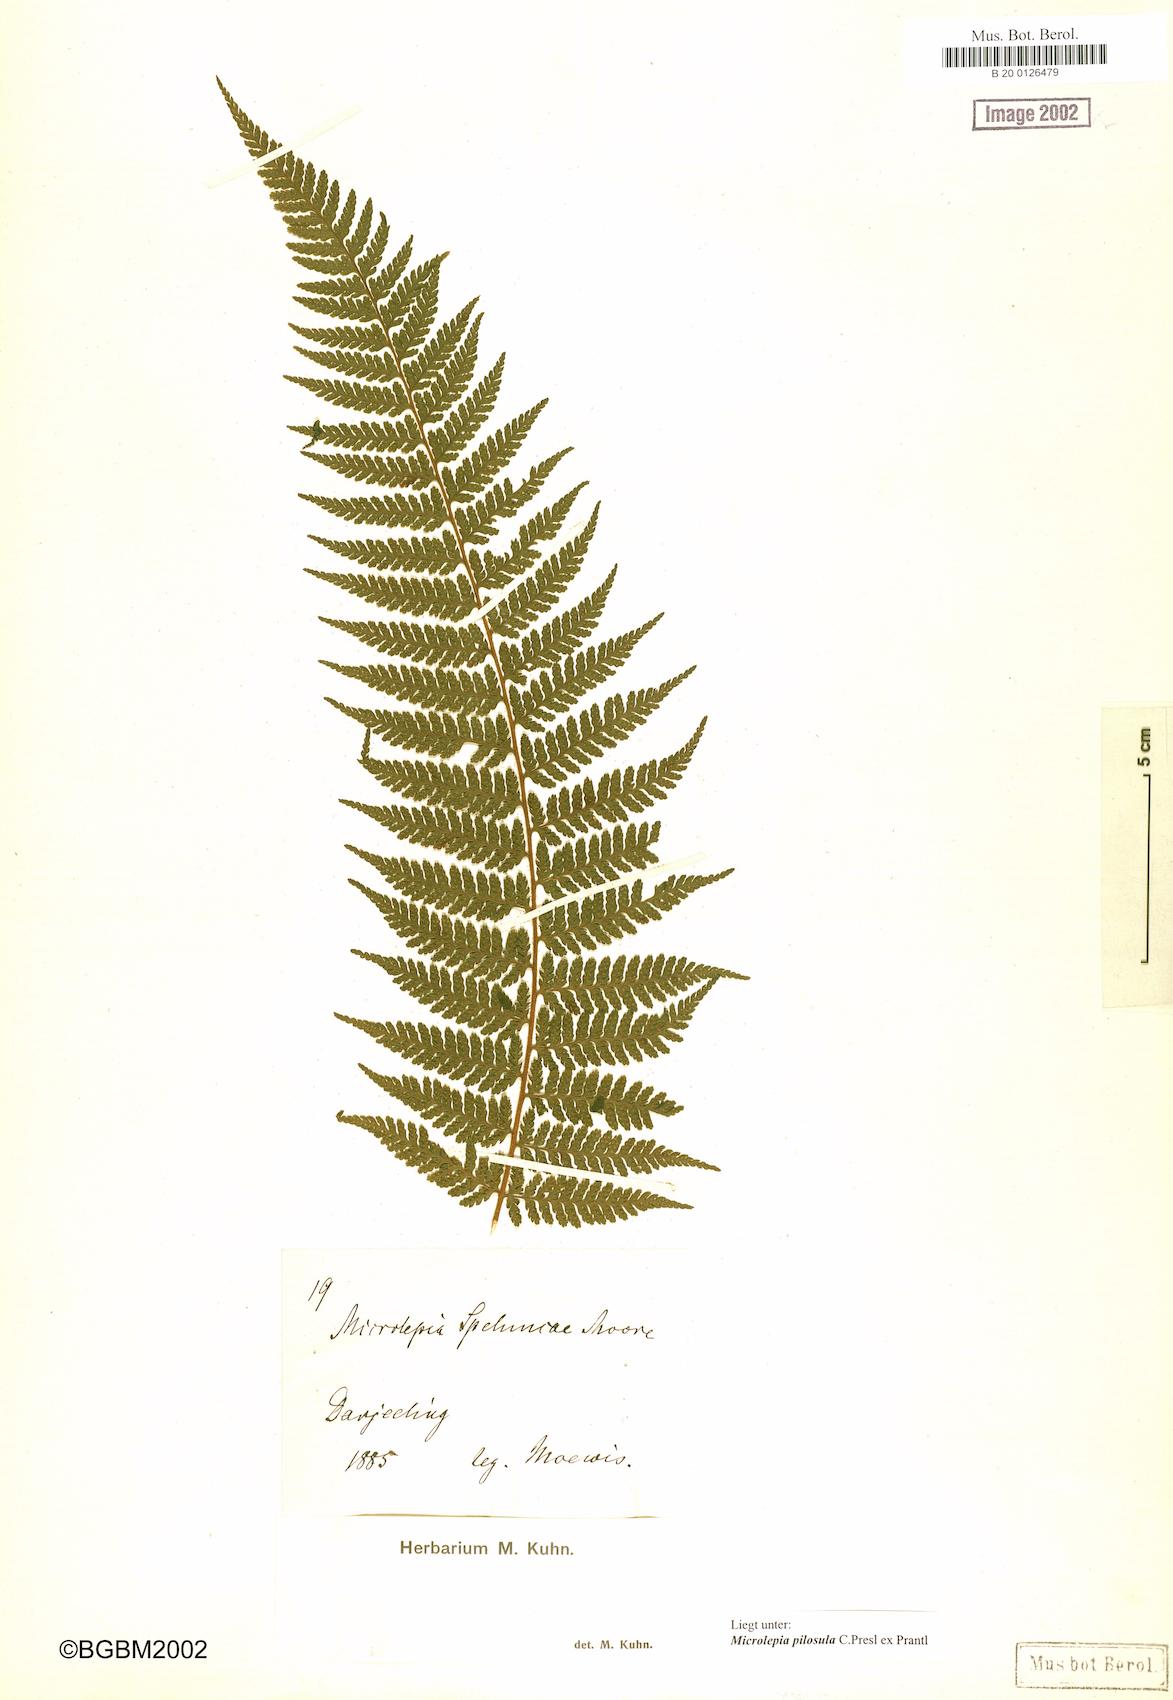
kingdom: Plantae
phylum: Tracheophyta
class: Polypodiopsida
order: Polypodiales
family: Dennstaedtiaceae
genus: Microlepia
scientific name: Microlepia speluncae
